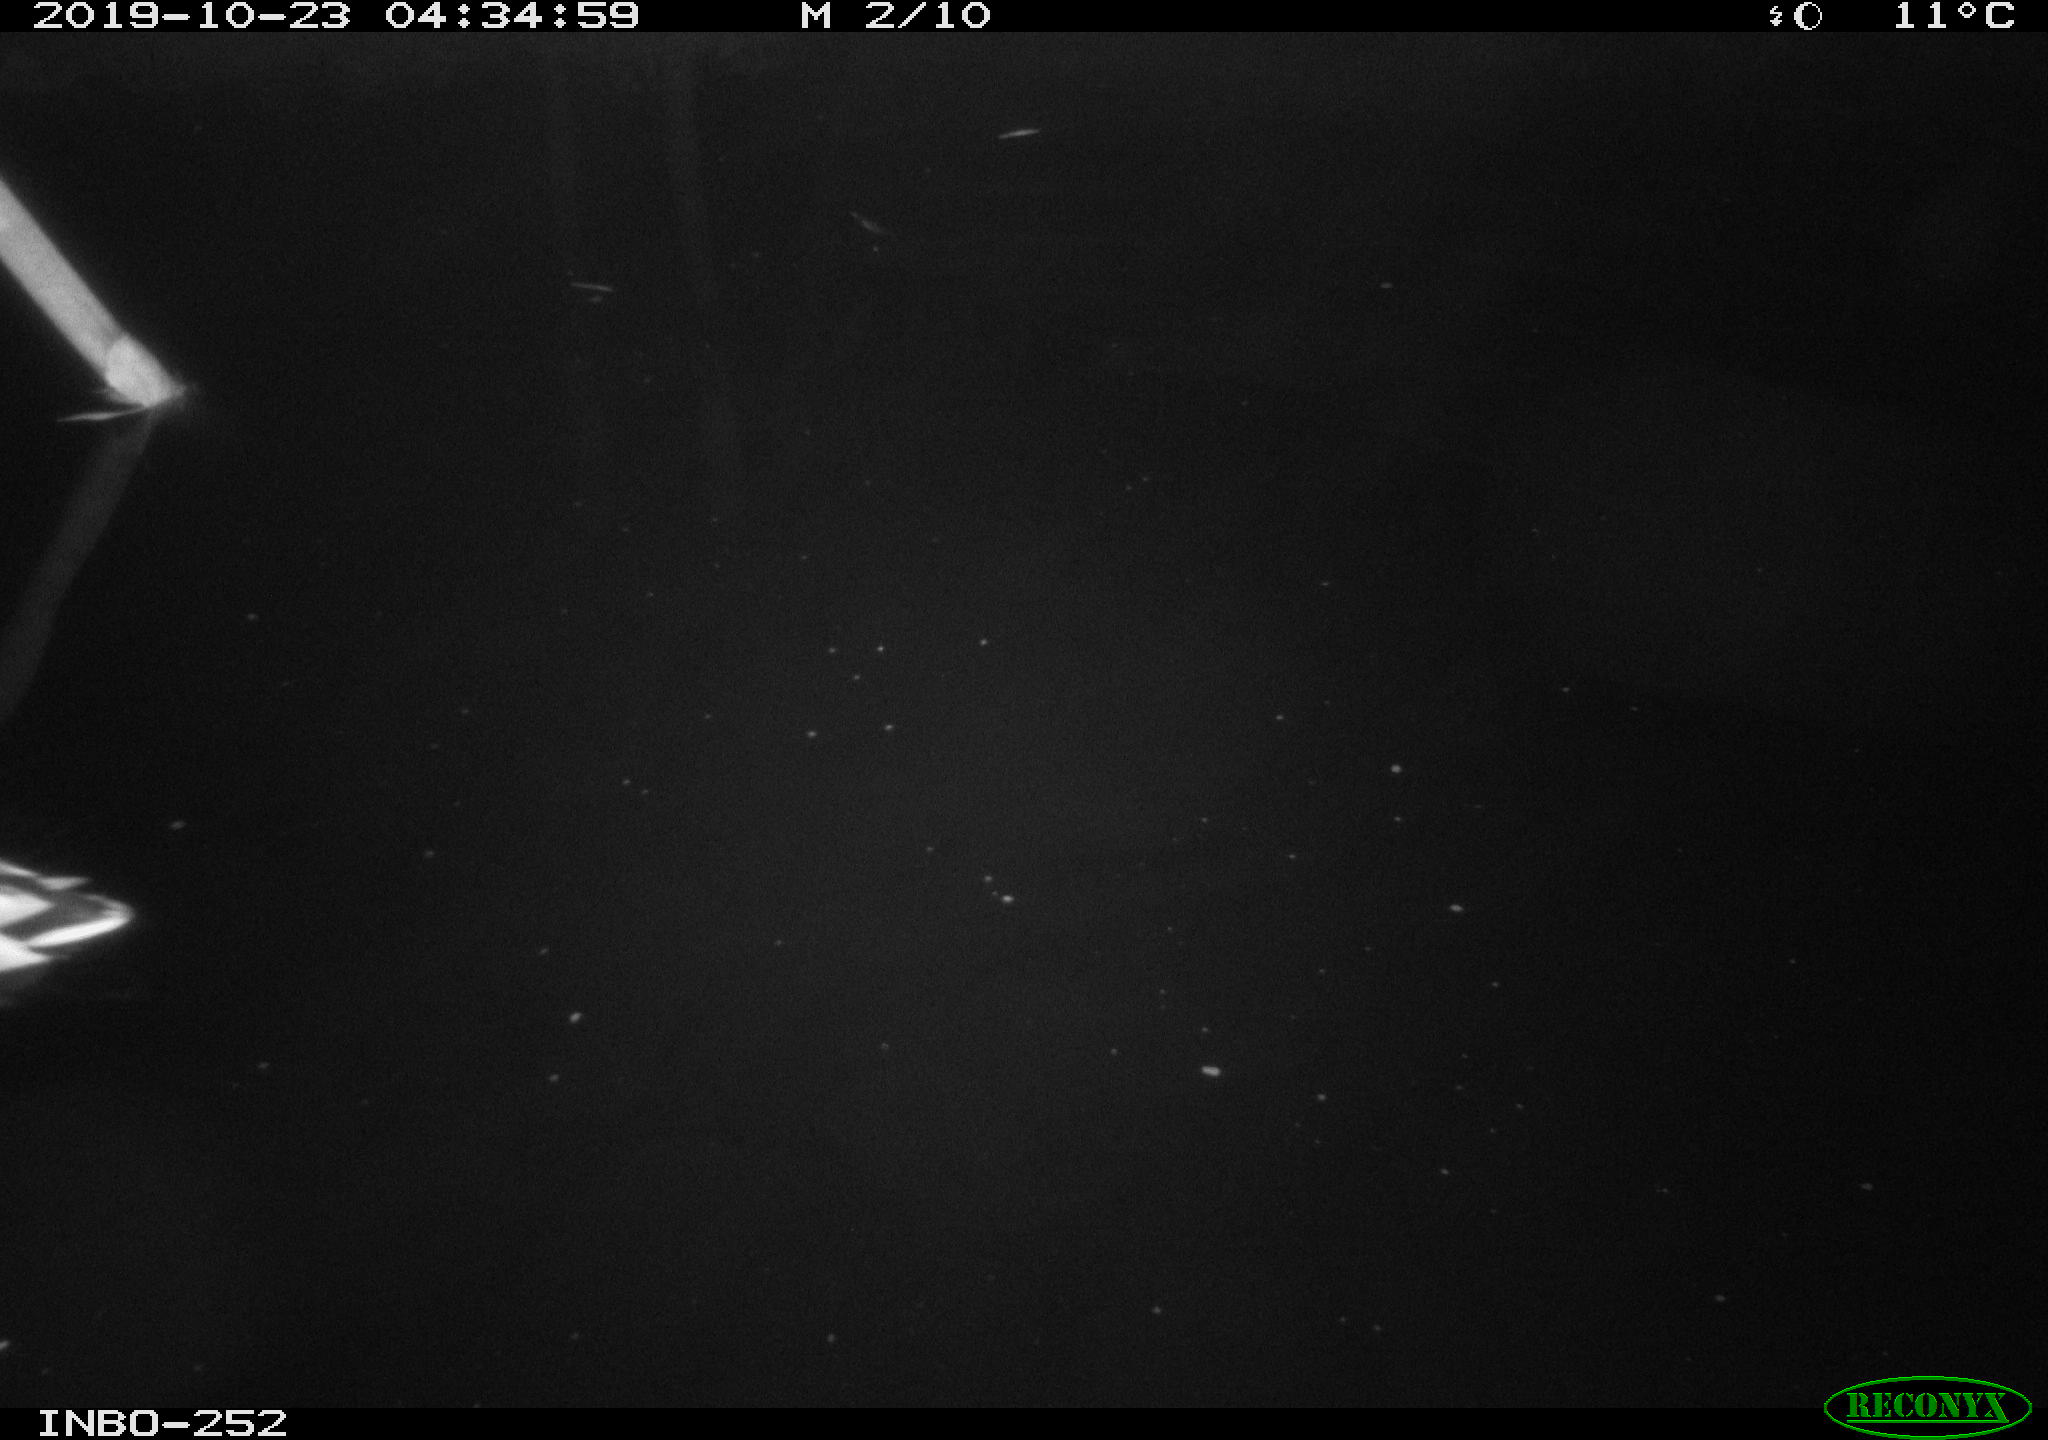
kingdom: Animalia
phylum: Chordata
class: Aves
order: Anseriformes
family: Anatidae
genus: Anas
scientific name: Anas platyrhynchos
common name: Mallard
